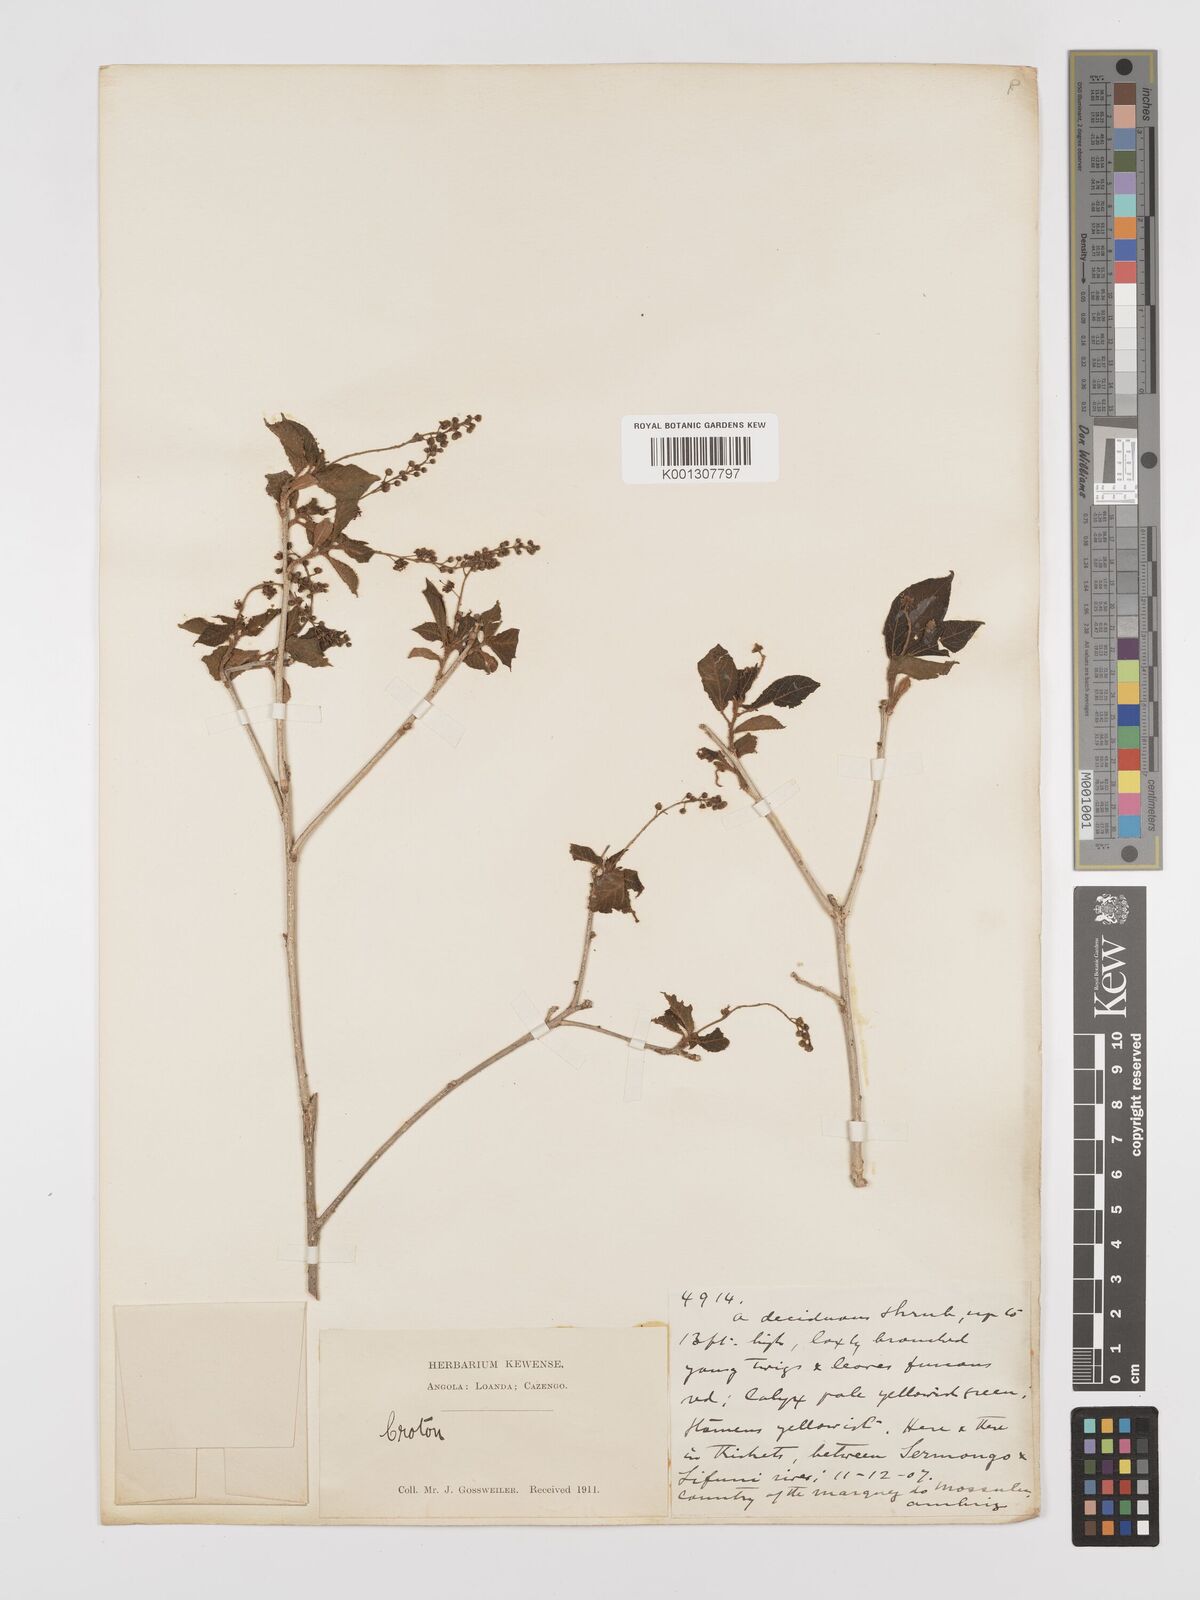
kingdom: Plantae
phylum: Tracheophyta
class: Magnoliopsida
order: Malpighiales
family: Euphorbiaceae
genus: Croton
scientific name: Croton angolensis
